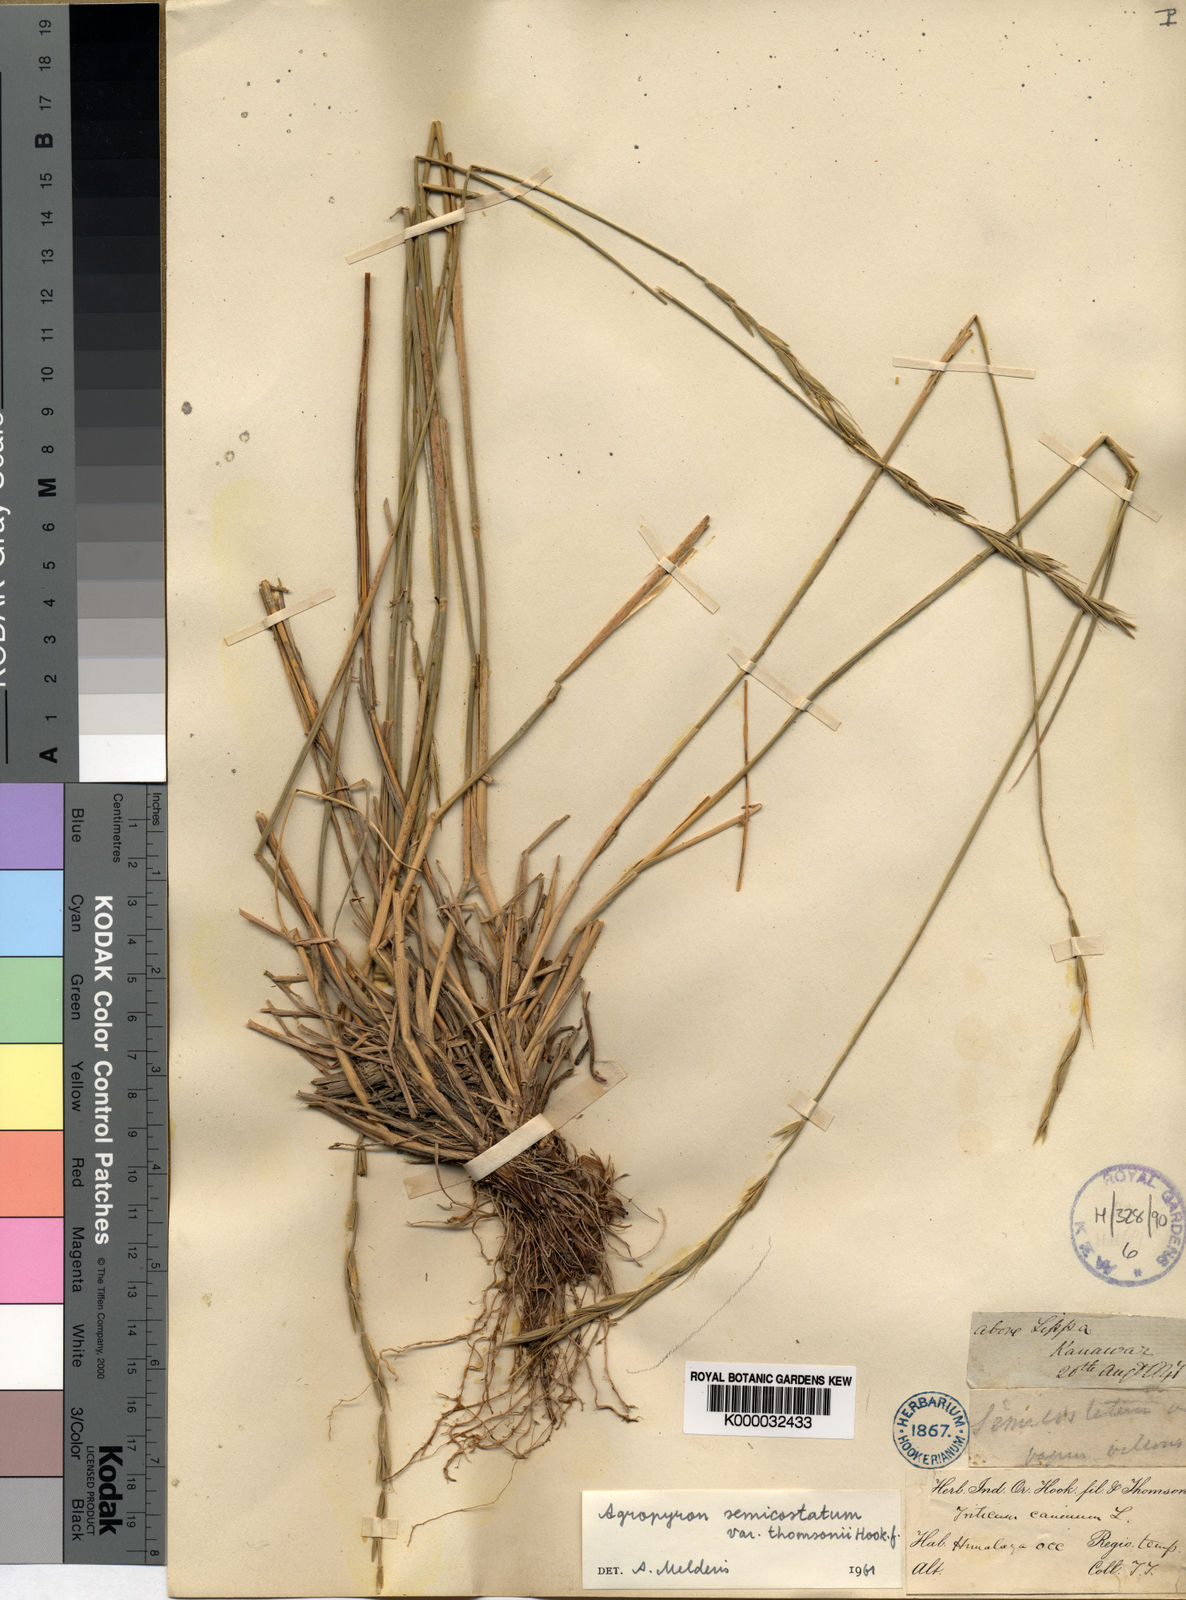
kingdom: Plantae
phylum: Tracheophyta
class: Liliopsida
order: Poales
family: Poaceae
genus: Elymus
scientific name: Elymus semicostatus
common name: Drooping wildrye
